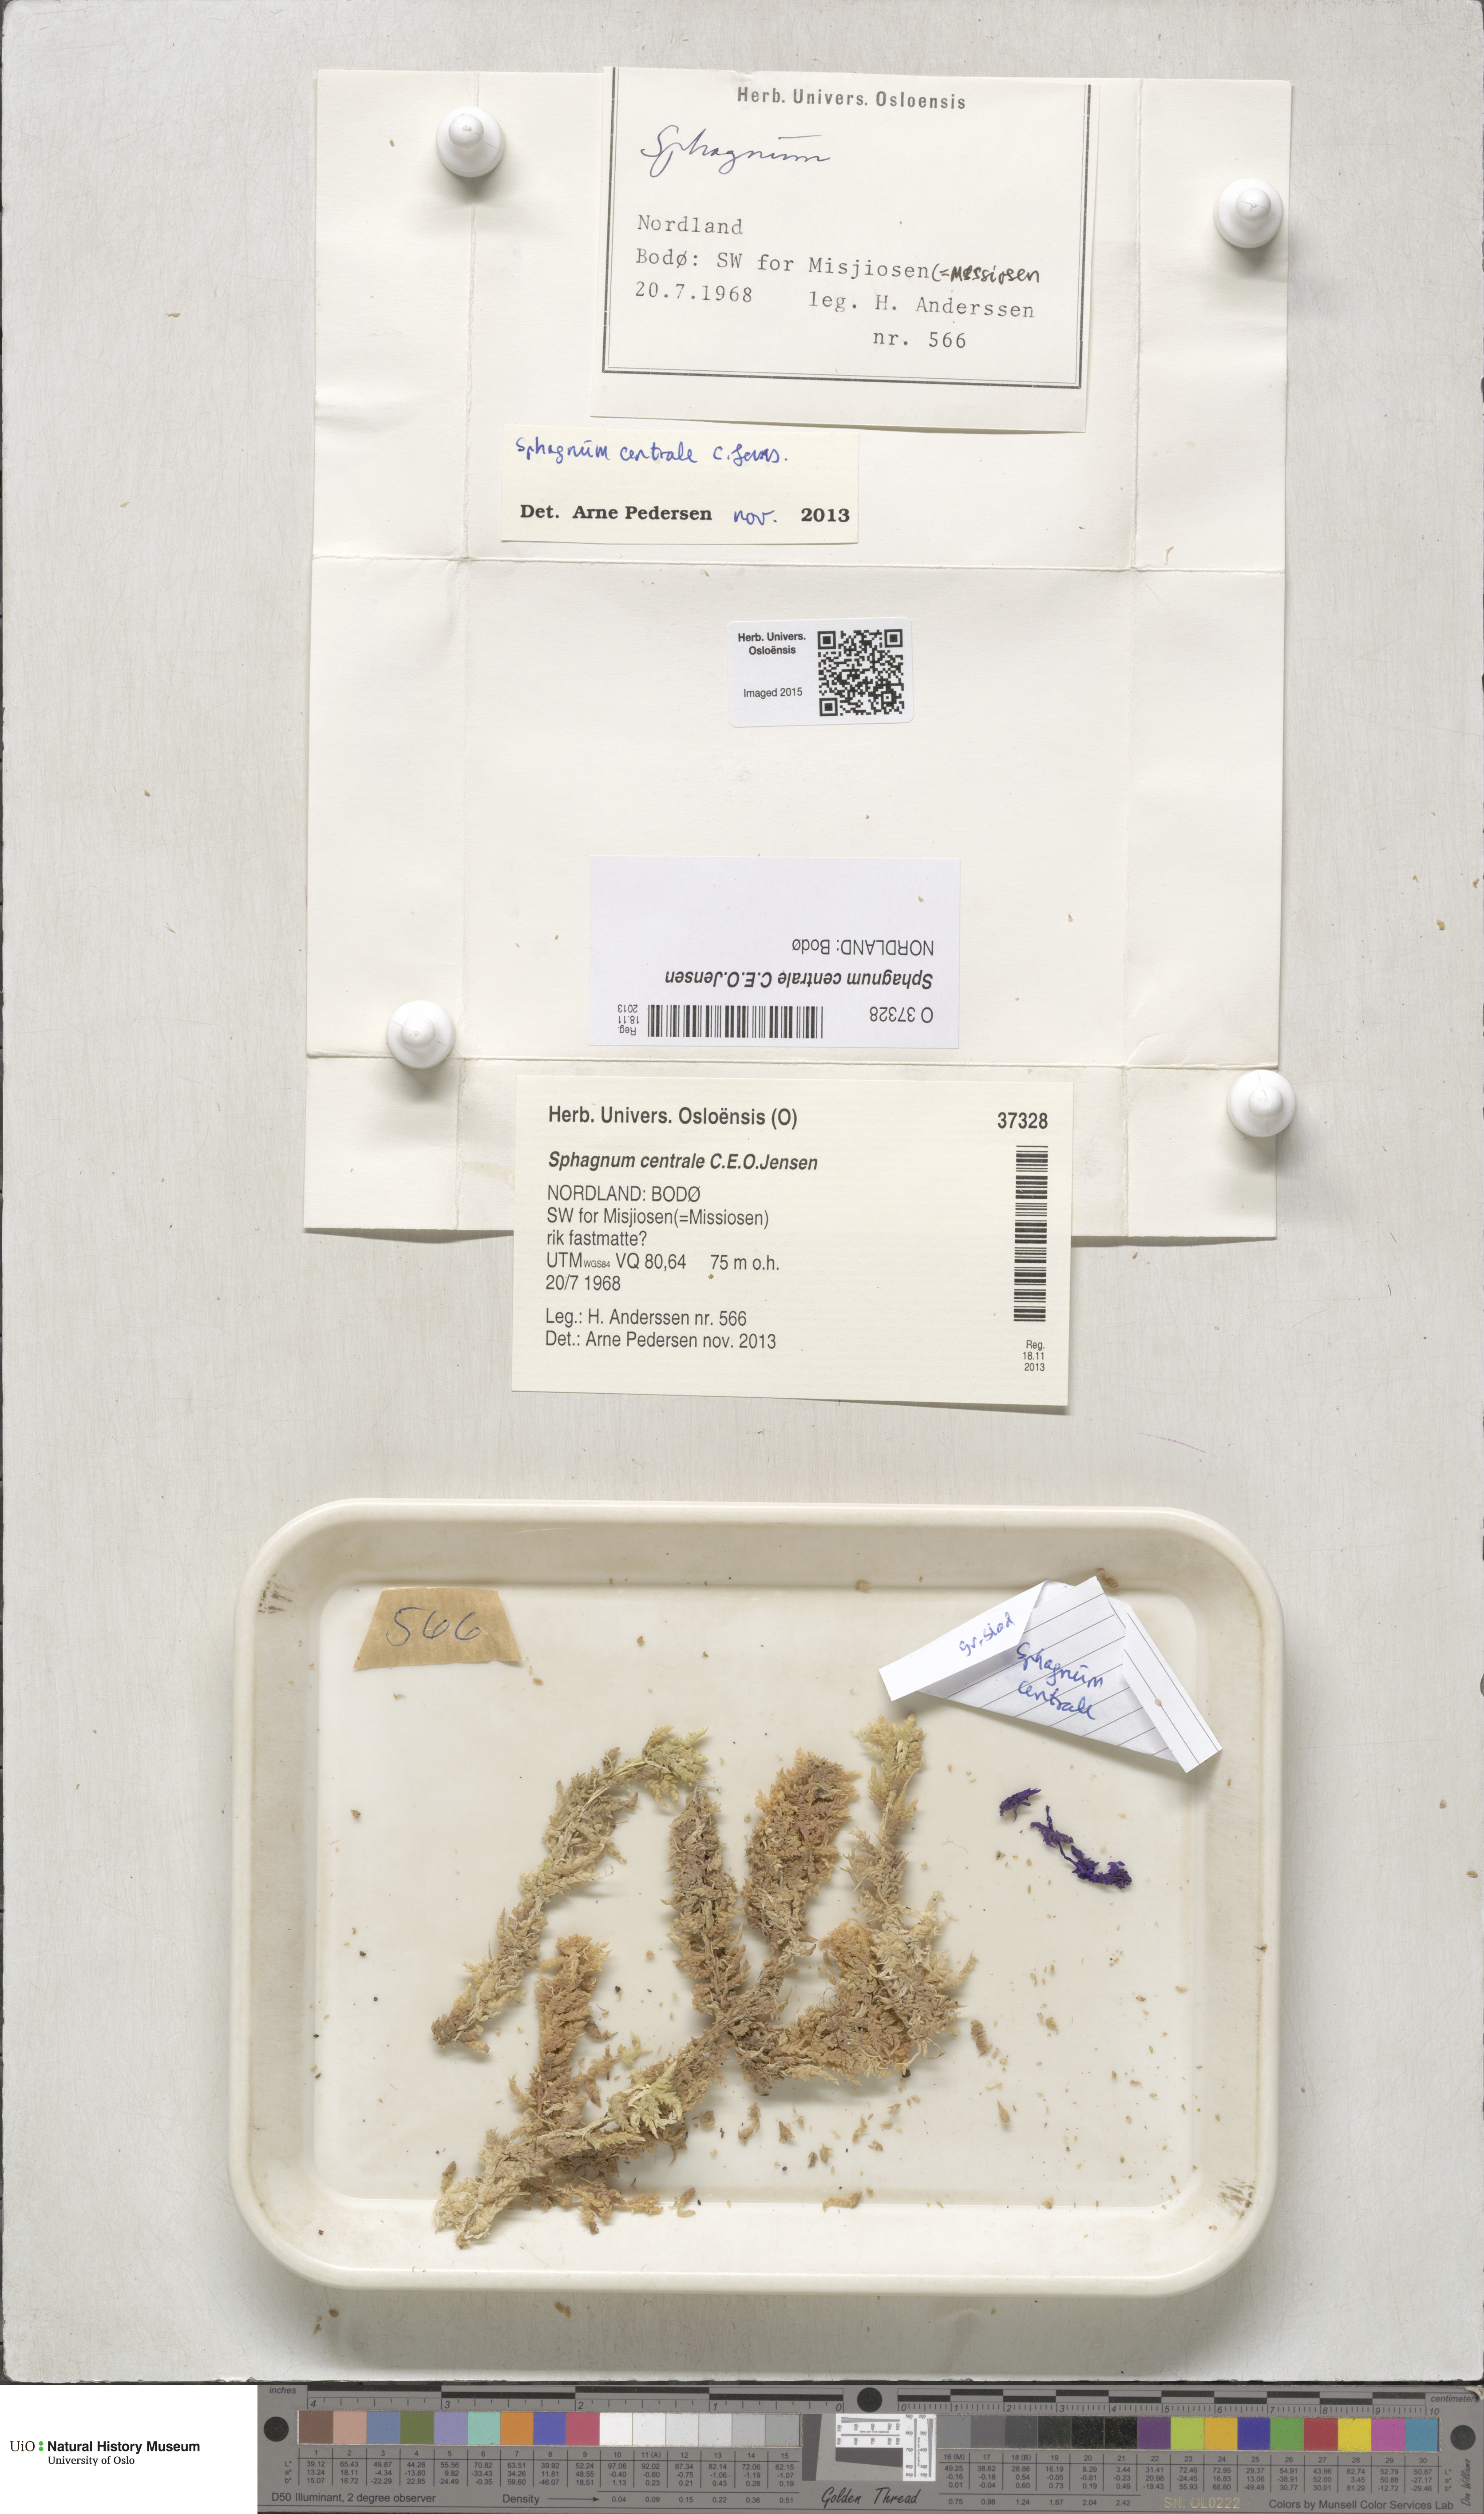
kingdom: Plantae
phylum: Bryophyta
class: Sphagnopsida
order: Sphagnales
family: Sphagnaceae
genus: Sphagnum
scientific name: Sphagnum centrale
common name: Central peat moss
